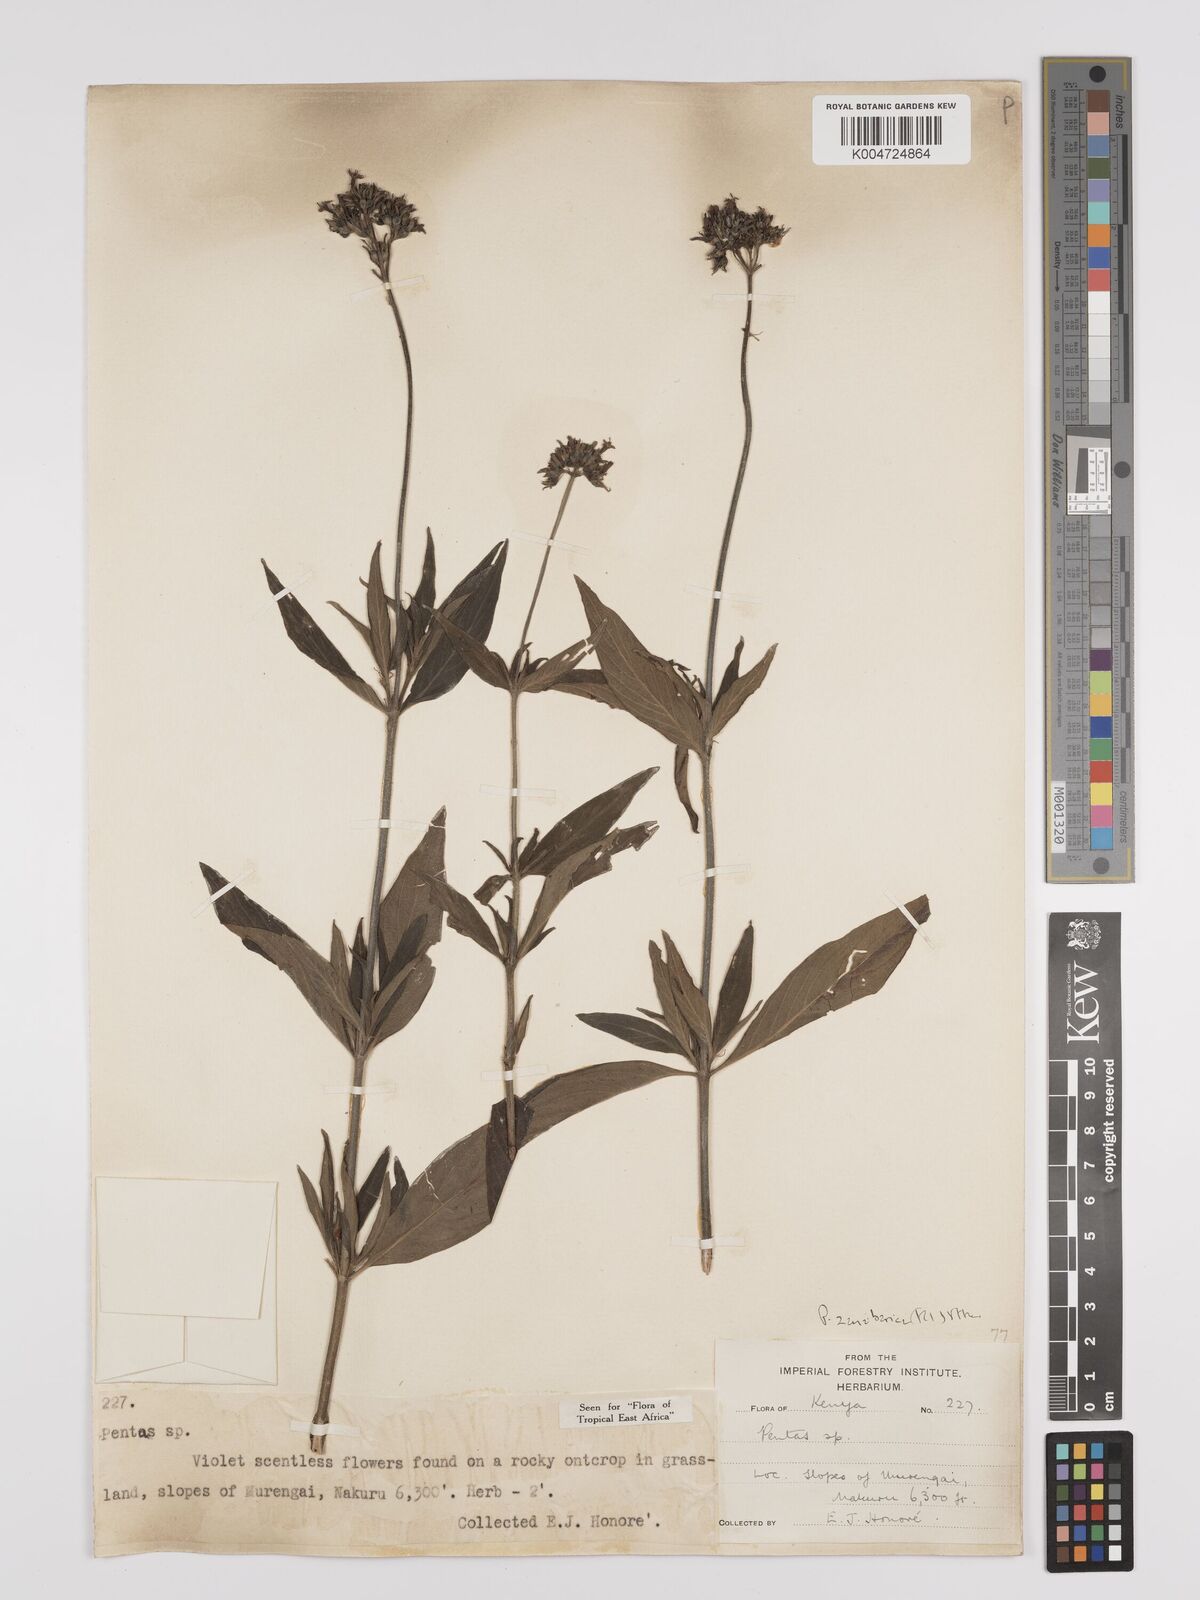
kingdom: Plantae
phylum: Tracheophyta
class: Magnoliopsida
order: Gentianales
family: Rubiaceae
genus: Pentas
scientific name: Pentas zanzibarica
